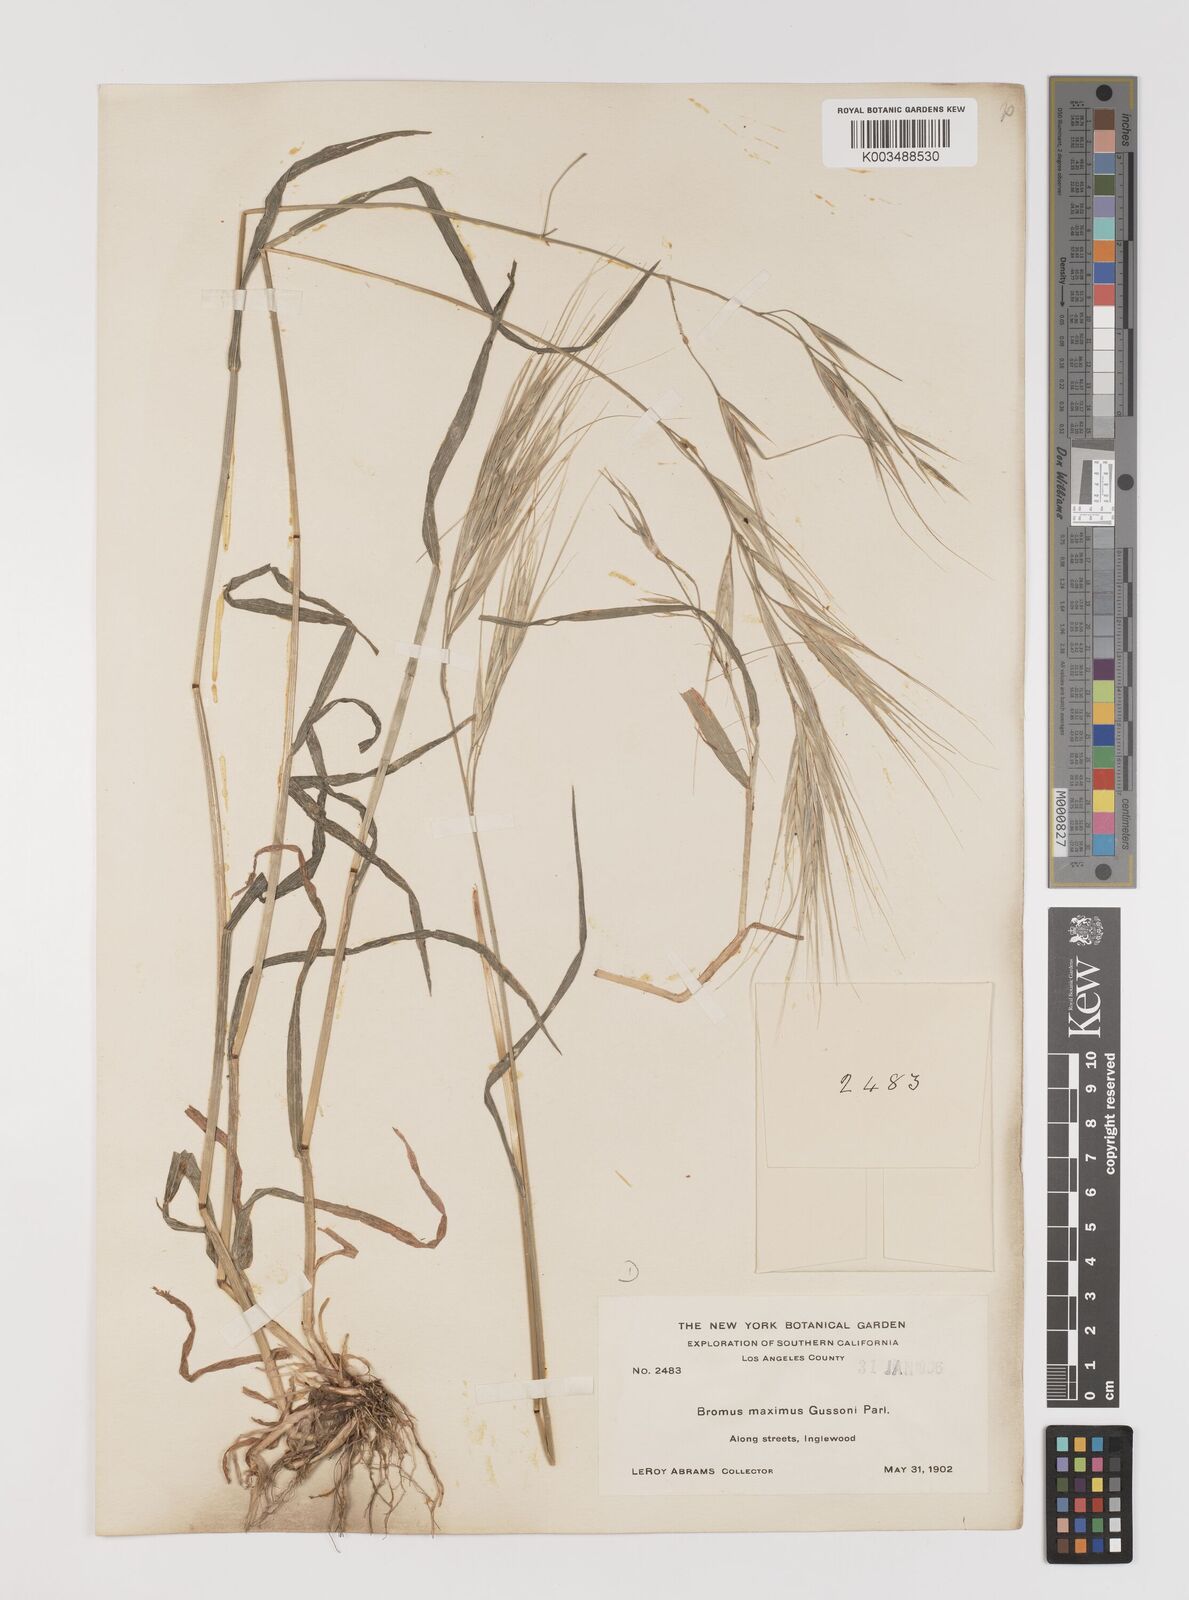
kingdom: Plantae
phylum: Tracheophyta
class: Liliopsida
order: Poales
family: Poaceae
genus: Bromus
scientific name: Bromus diandrus
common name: Ripgut brome
